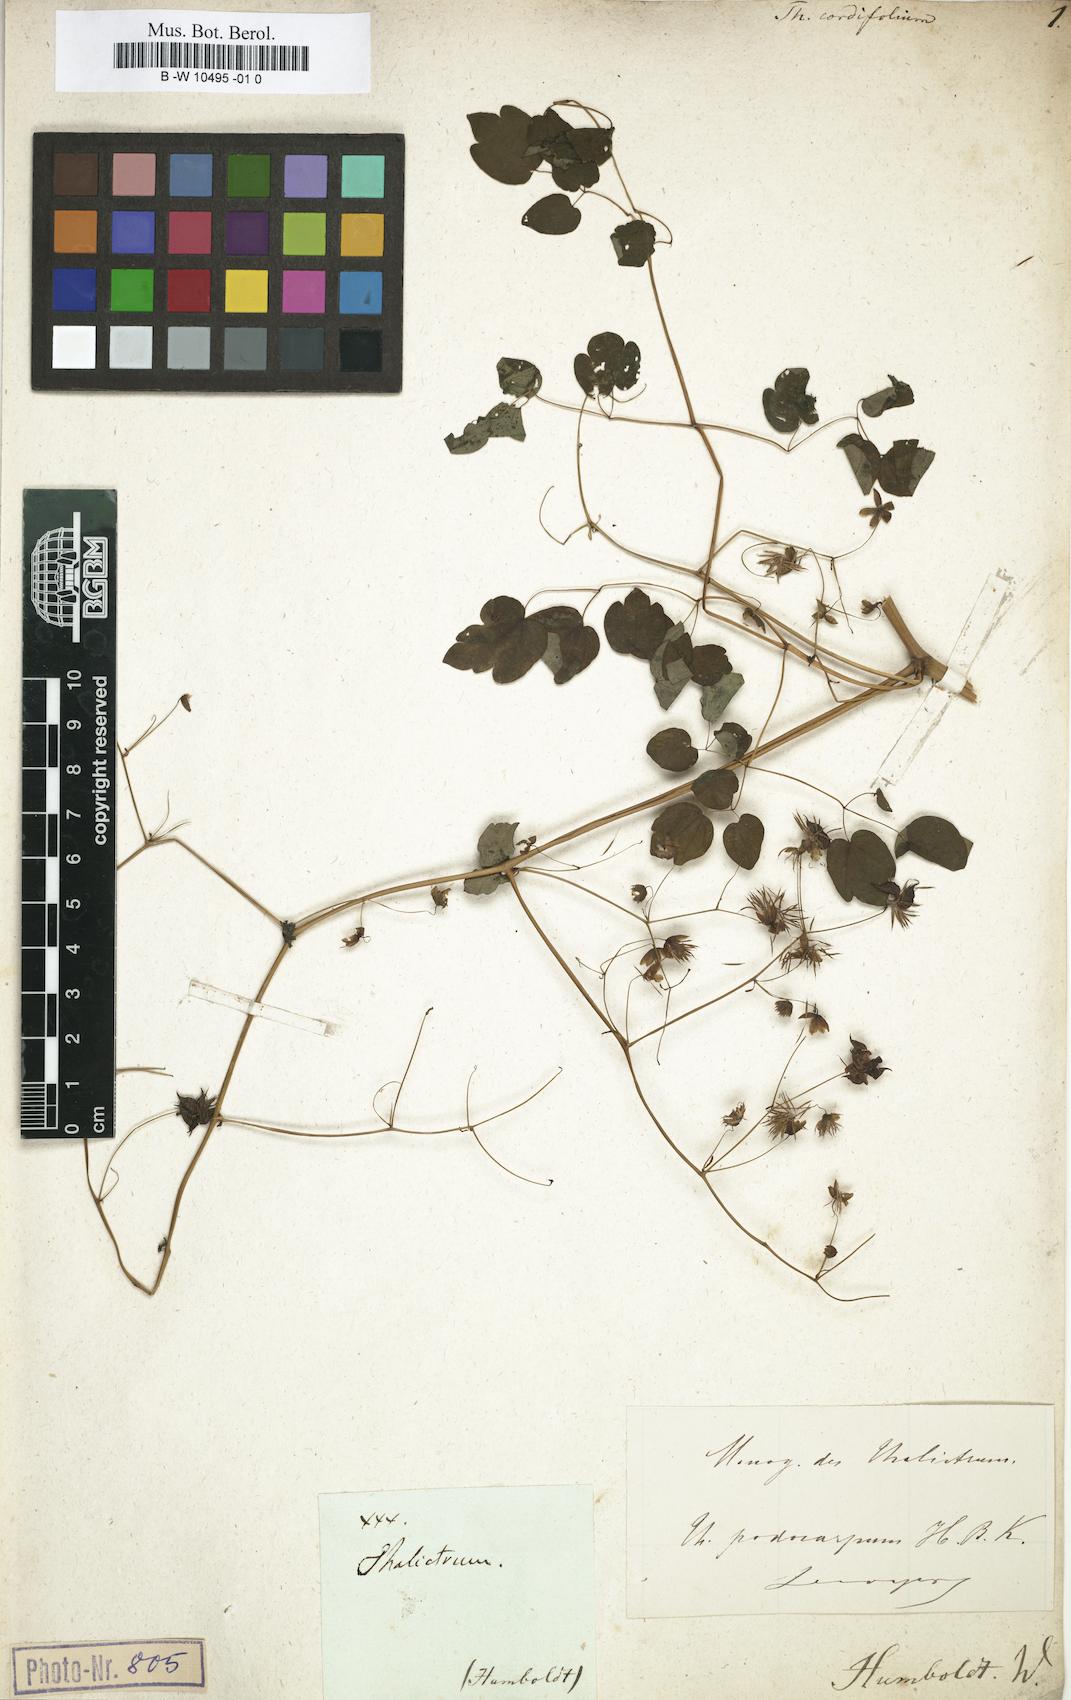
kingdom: Plantae
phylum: Tracheophyta
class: Magnoliopsida
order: Ranunculales
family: Ranunculaceae
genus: Thalictrum
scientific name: Thalictrum podocarpum
